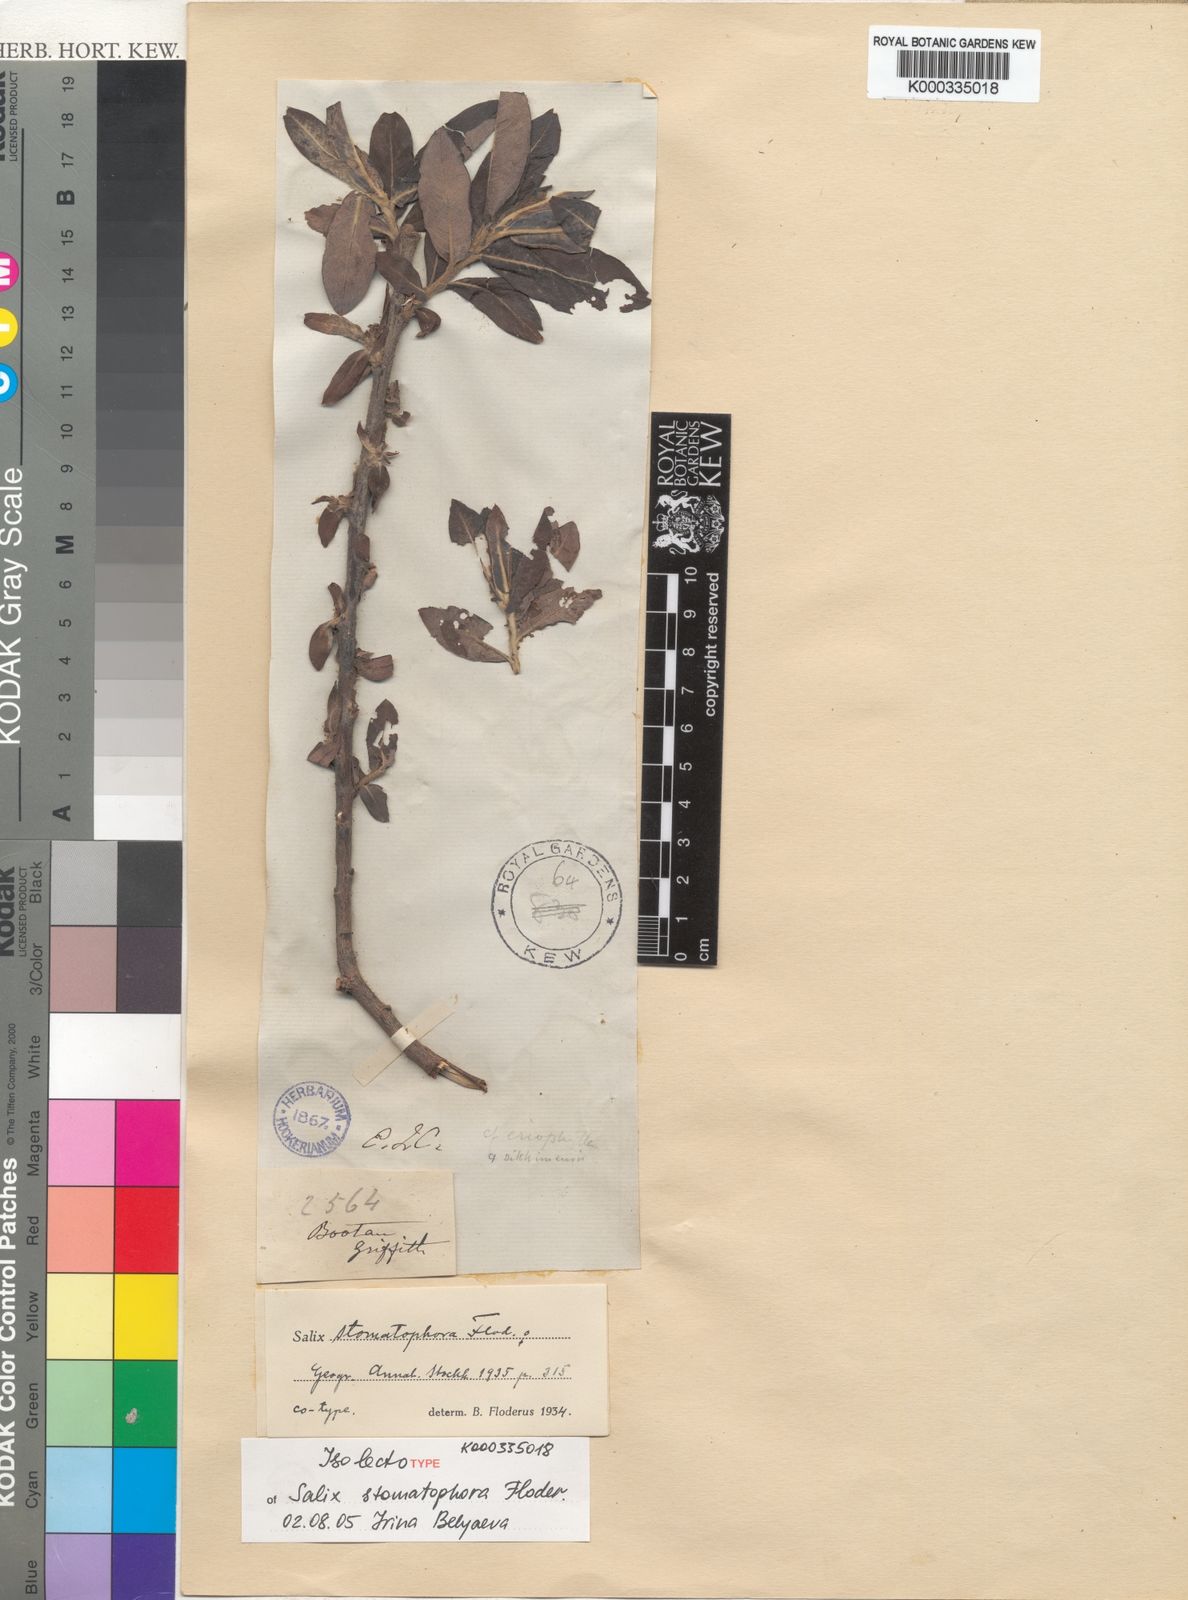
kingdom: Plantae
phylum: Tracheophyta
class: Magnoliopsida
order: Malpighiales
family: Salicaceae
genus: Salix
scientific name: Salix stomatophora
